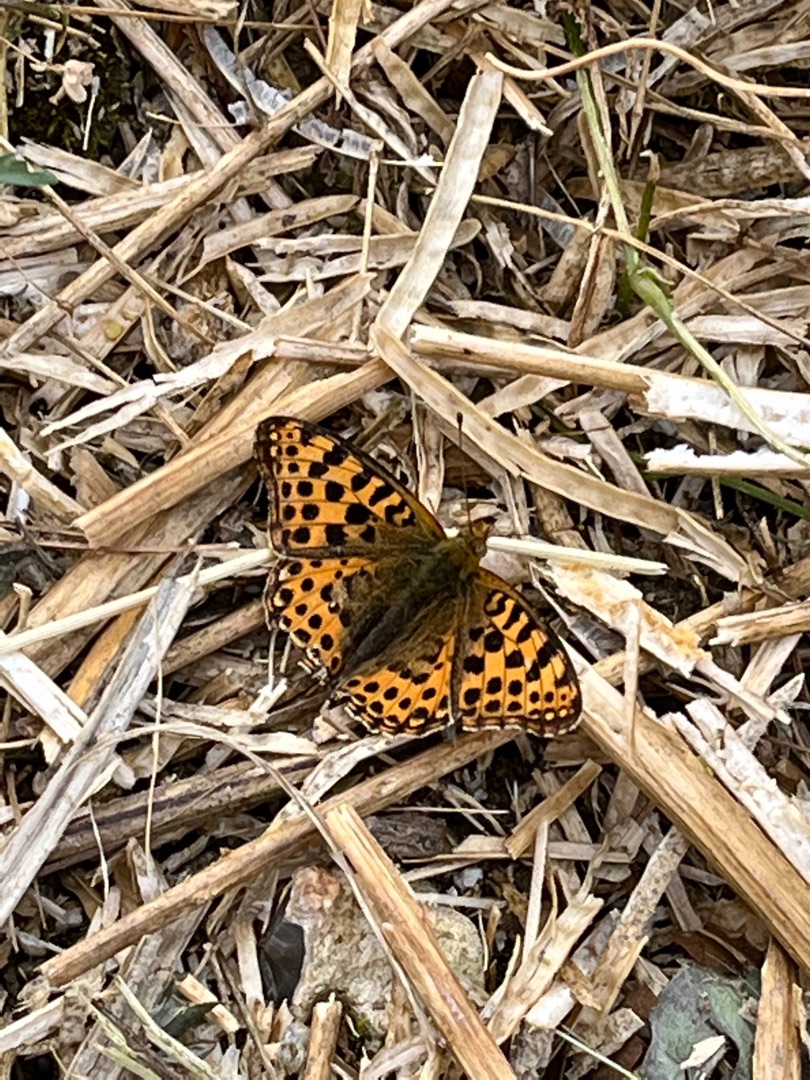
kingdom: Animalia
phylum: Arthropoda
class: Insecta
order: Lepidoptera
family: Nymphalidae
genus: Issoria
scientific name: Issoria lathonia
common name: Storplettet perlemorsommerfugl
